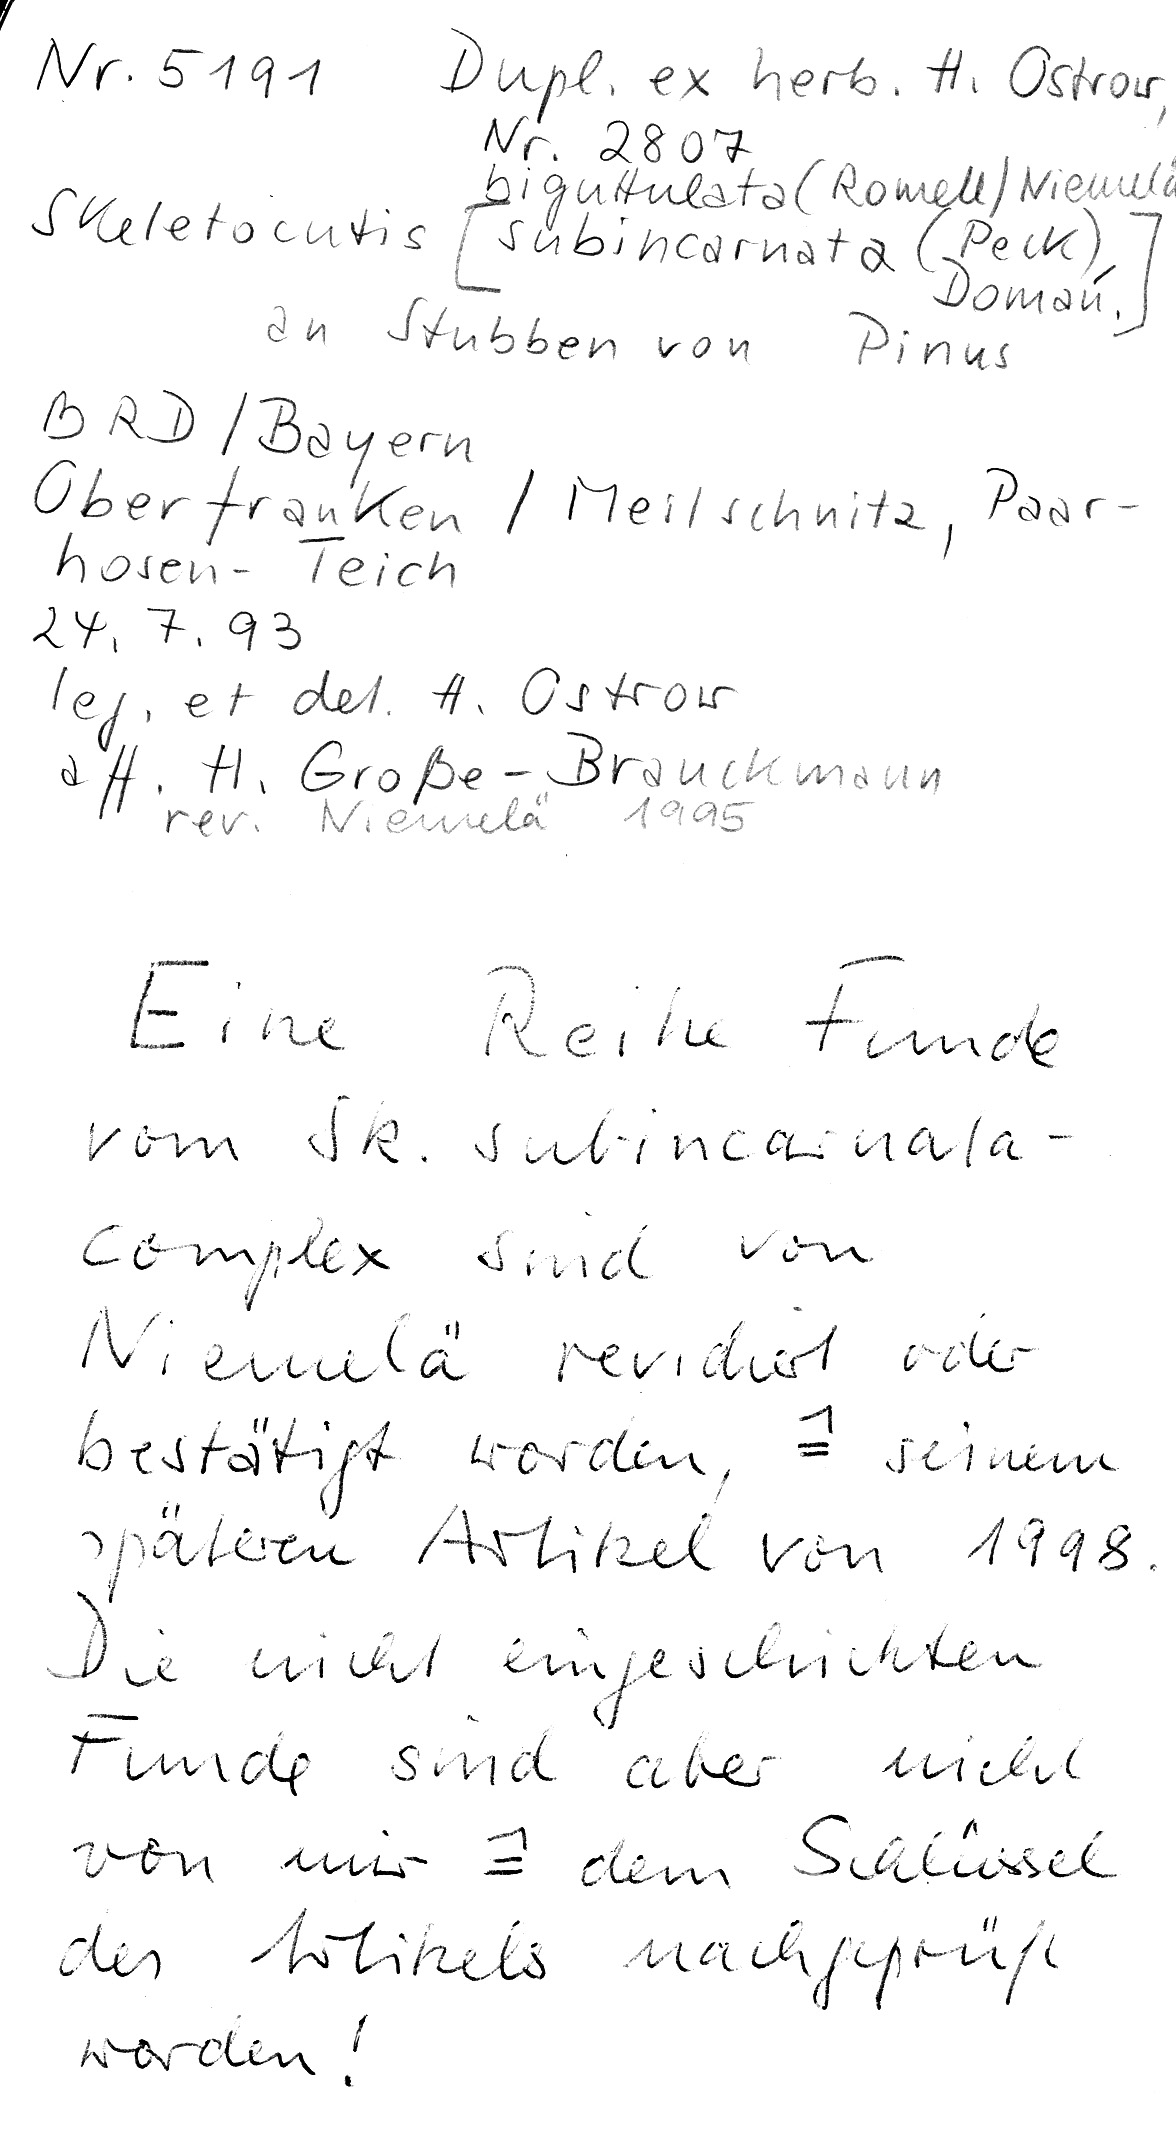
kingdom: Plantae
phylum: Tracheophyta
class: Pinopsida
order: Pinales
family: Pinaceae
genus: Pinus
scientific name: Pinus
